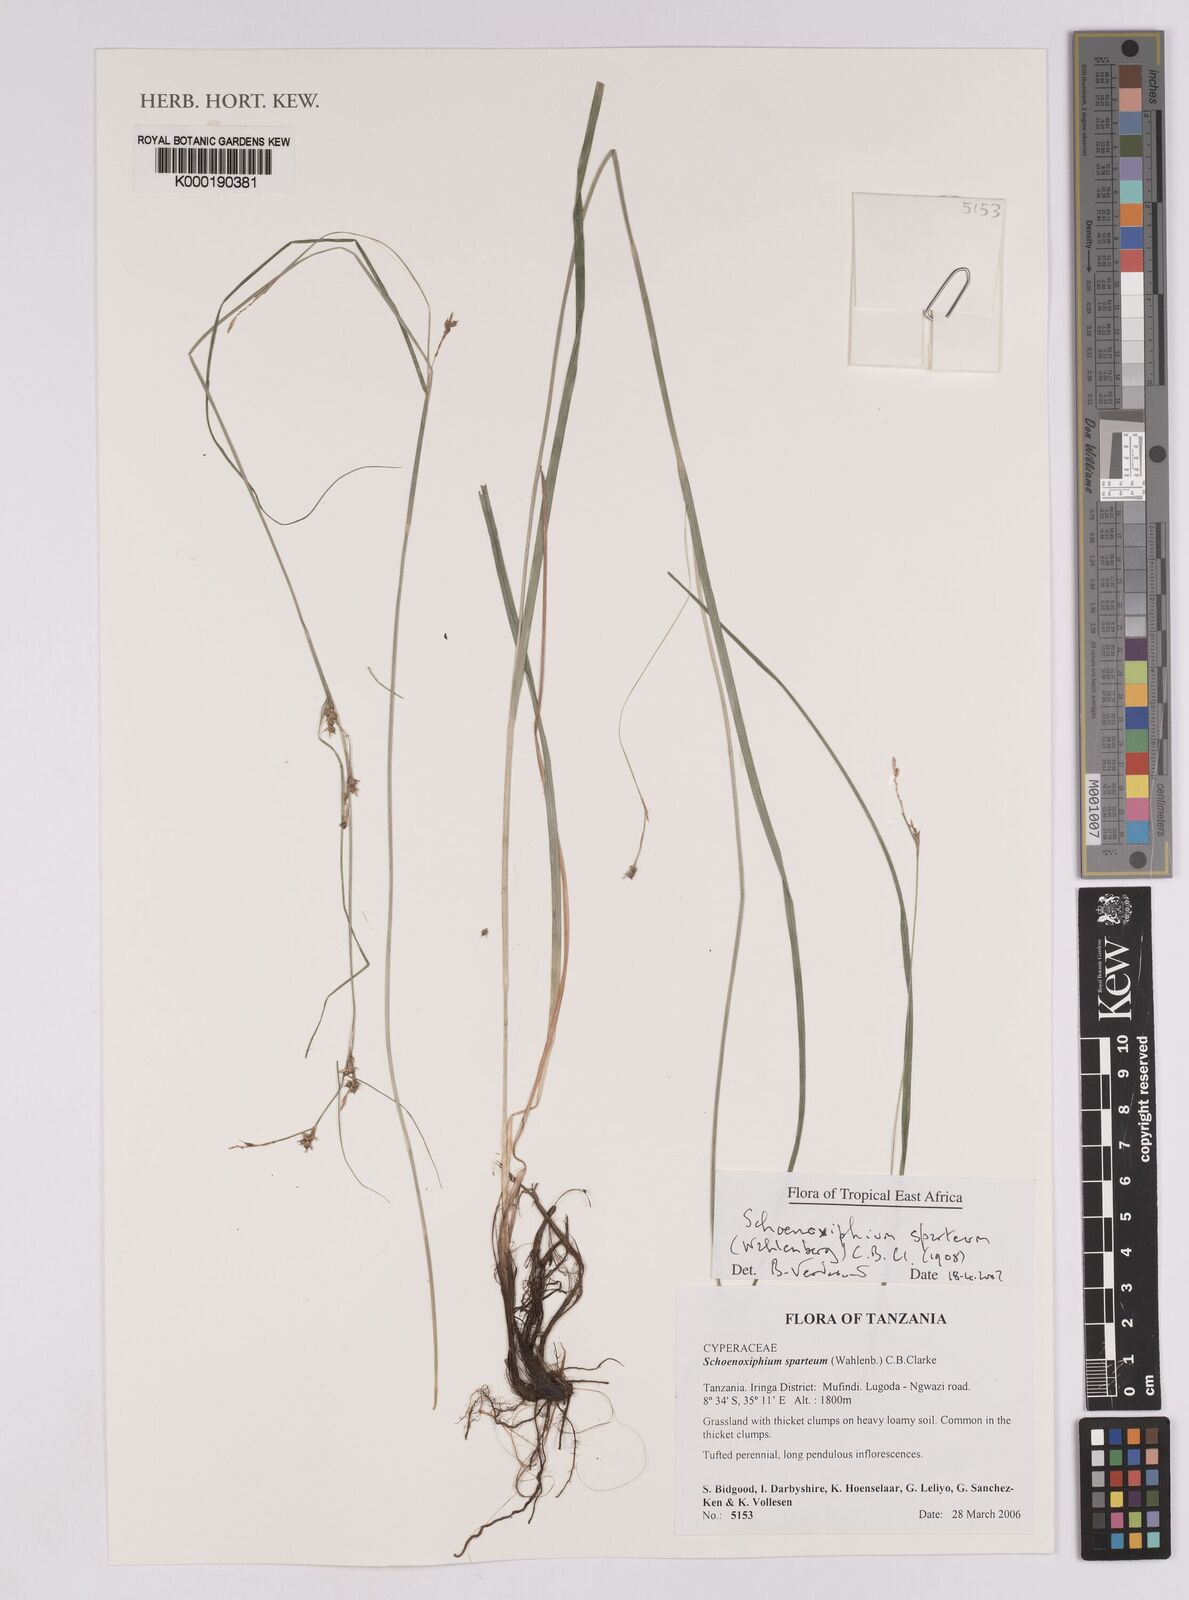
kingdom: Plantae
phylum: Tracheophyta
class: Liliopsida
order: Poales
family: Cyperaceae
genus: Carex
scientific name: Carex spartea
